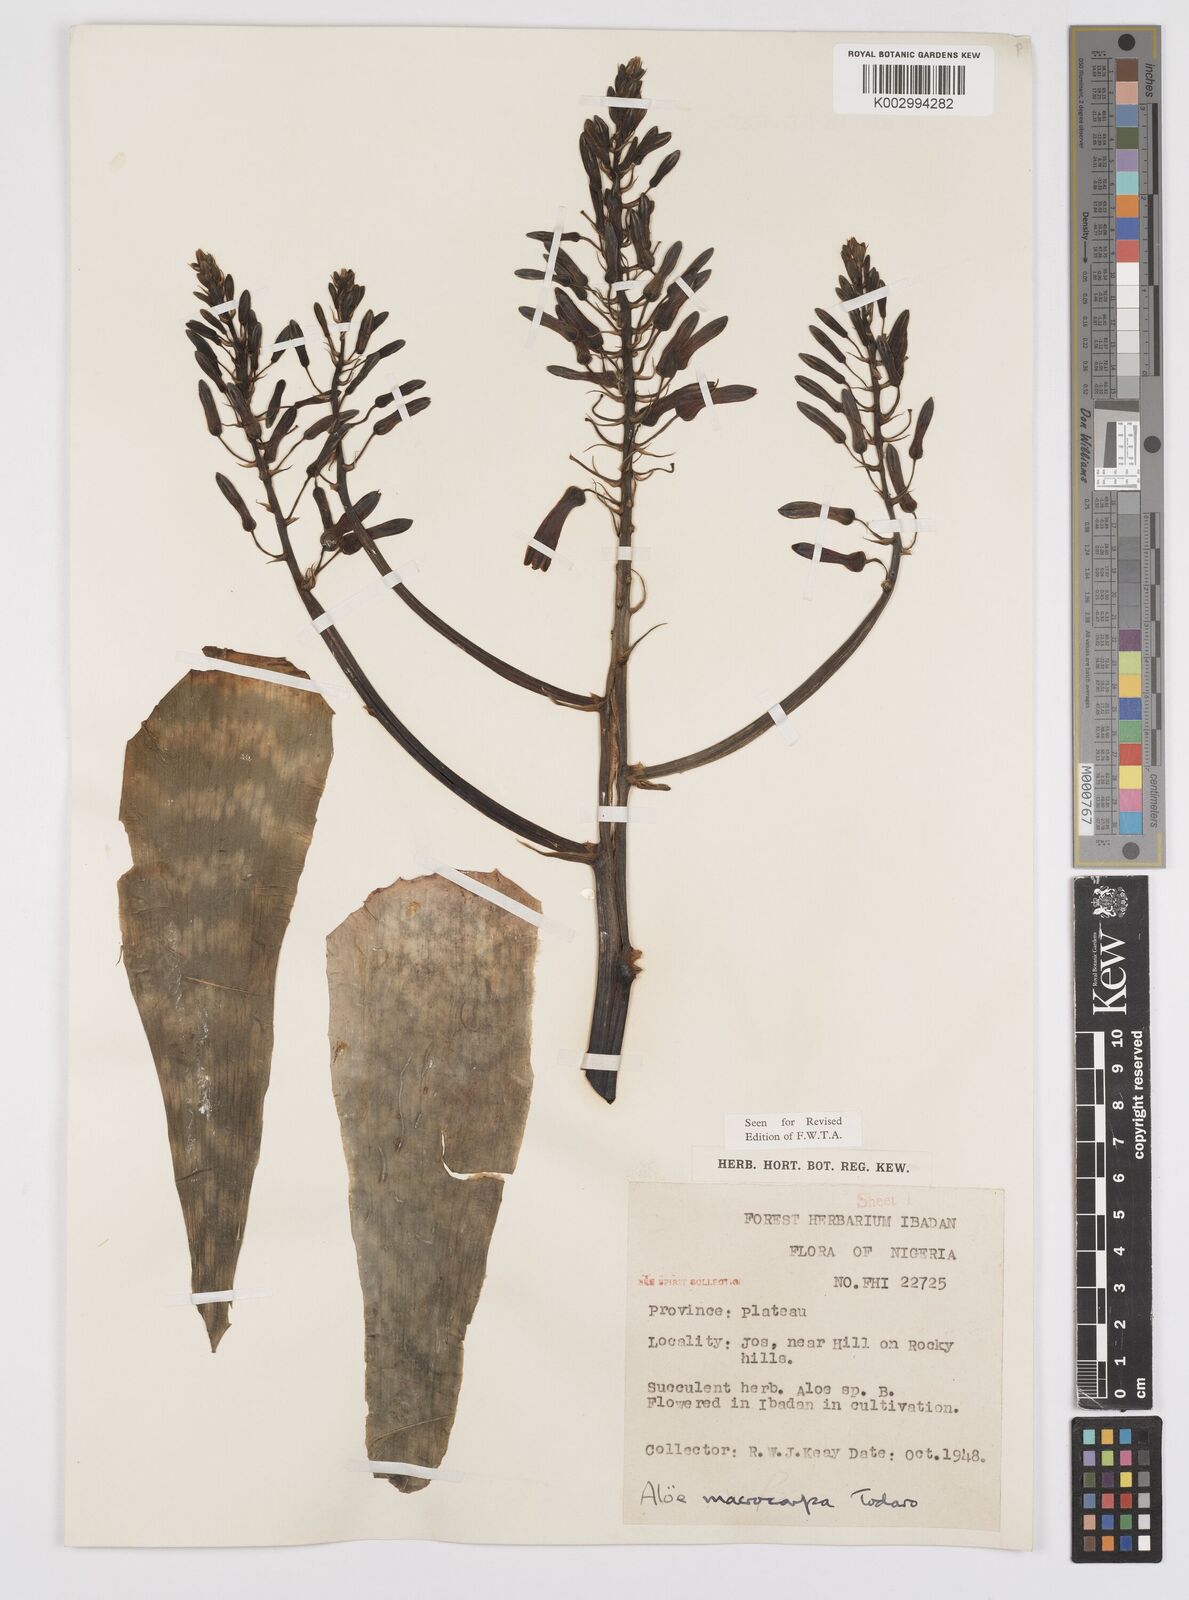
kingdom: Plantae
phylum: Tracheophyta
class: Liliopsida
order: Asparagales
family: Asphodelaceae
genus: Aloe
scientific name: Aloe macrocarpa
